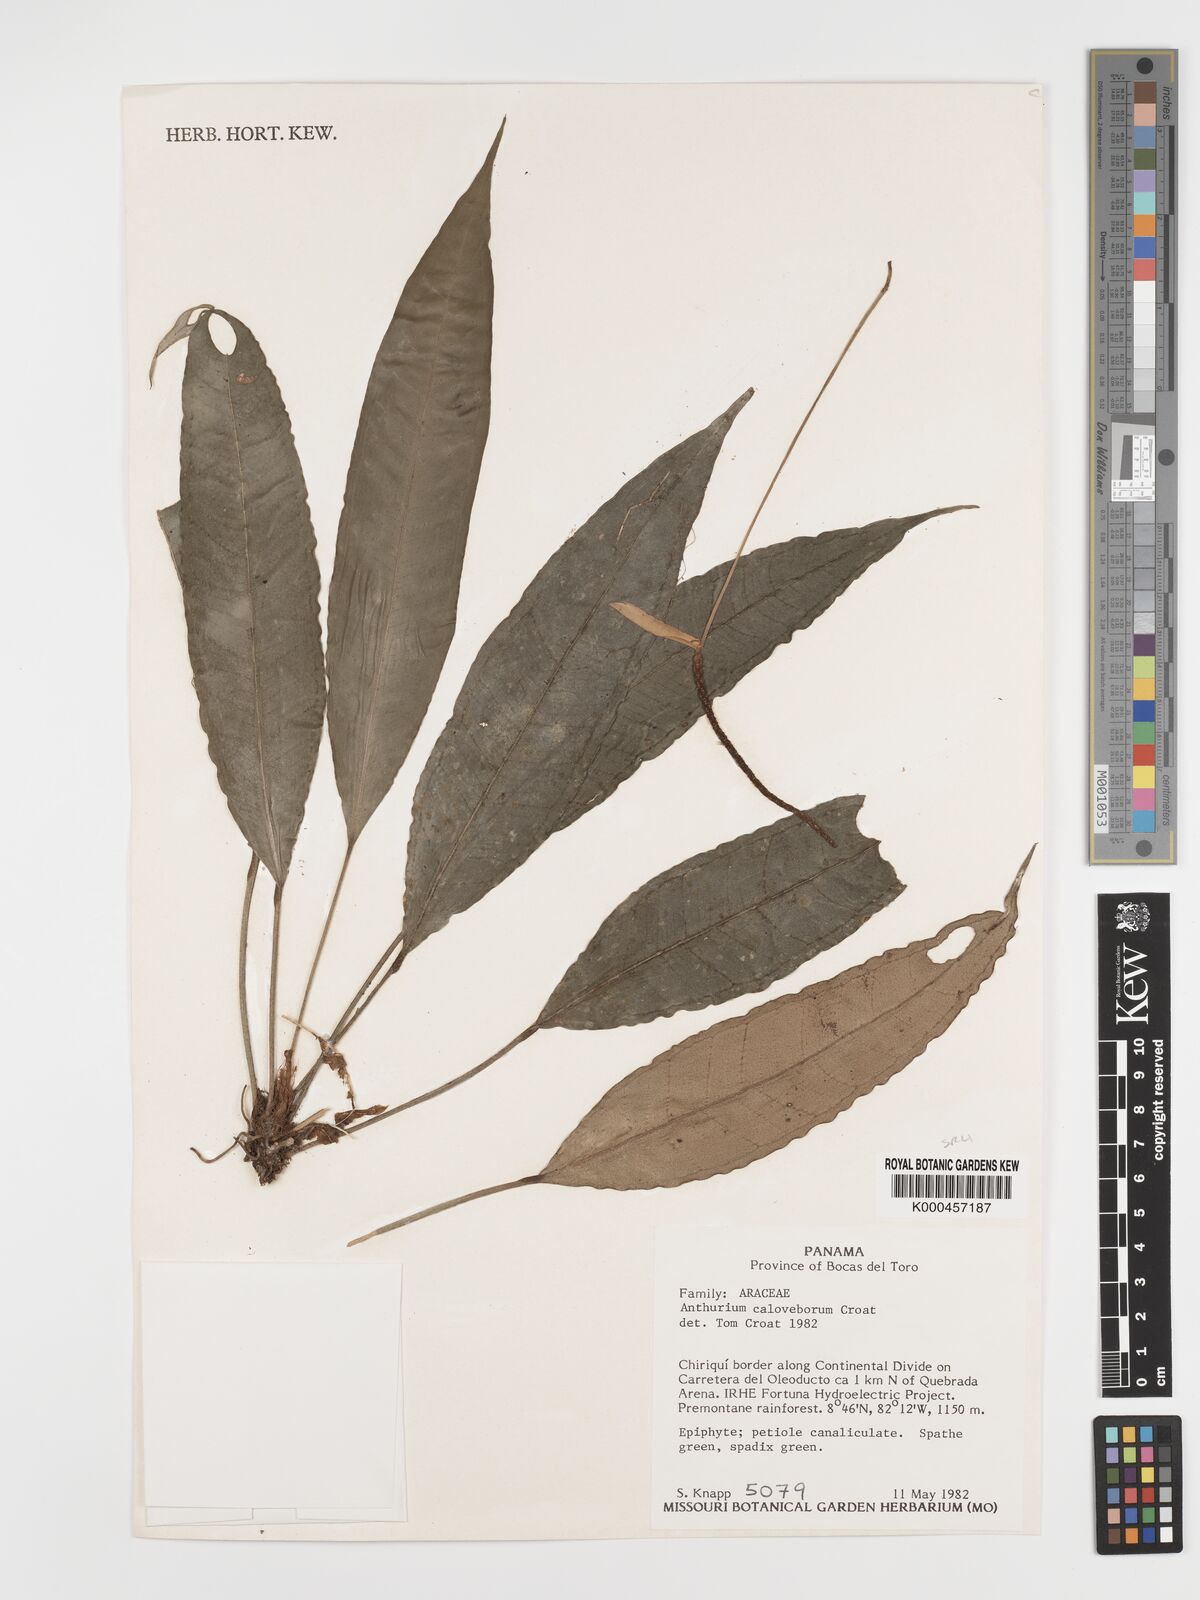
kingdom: Plantae
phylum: Tracheophyta
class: Liliopsida
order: Alismatales
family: Araceae
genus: Anthurium
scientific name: Anthurium caloveboranum
